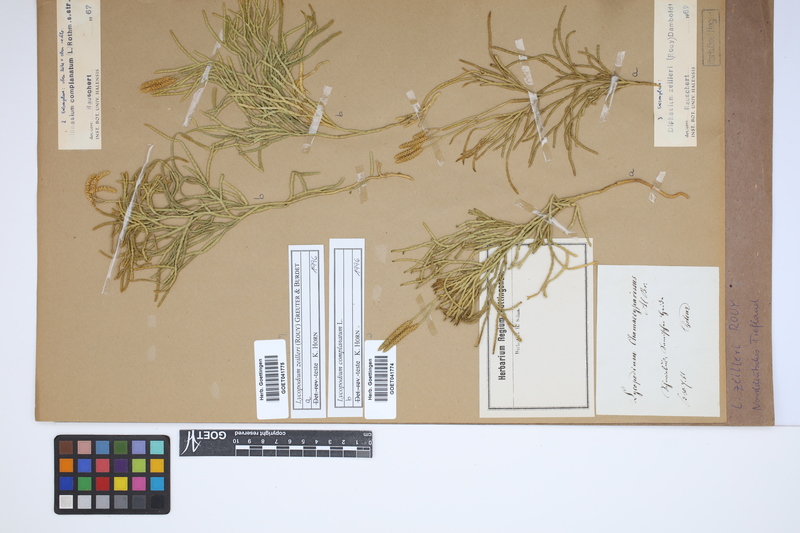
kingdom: Plantae
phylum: Tracheophyta
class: Lycopodiopsida
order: Lycopodiales
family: Lycopodiaceae
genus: Diphasiastrum
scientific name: Diphasiastrum complanatum
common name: Northern running-pine
